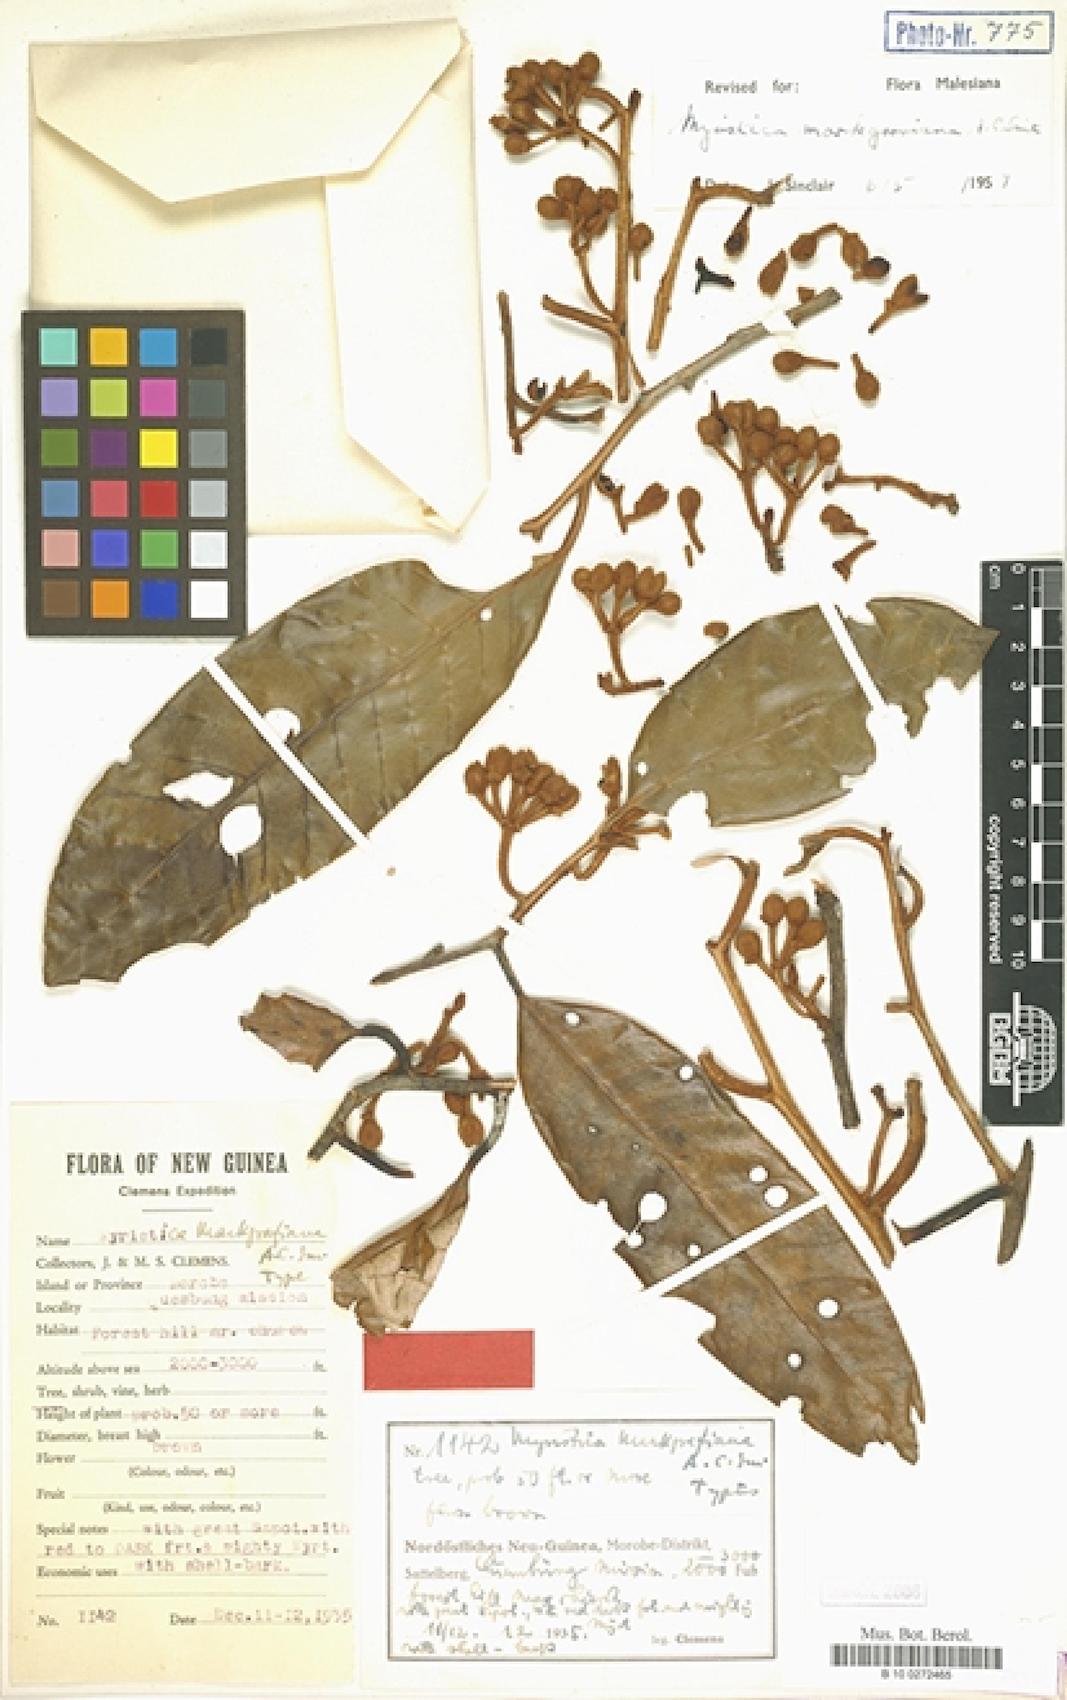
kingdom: Plantae
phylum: Tracheophyta
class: Magnoliopsida
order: Magnoliales
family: Myristicaceae
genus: Myristica
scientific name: Myristica markgraviana
